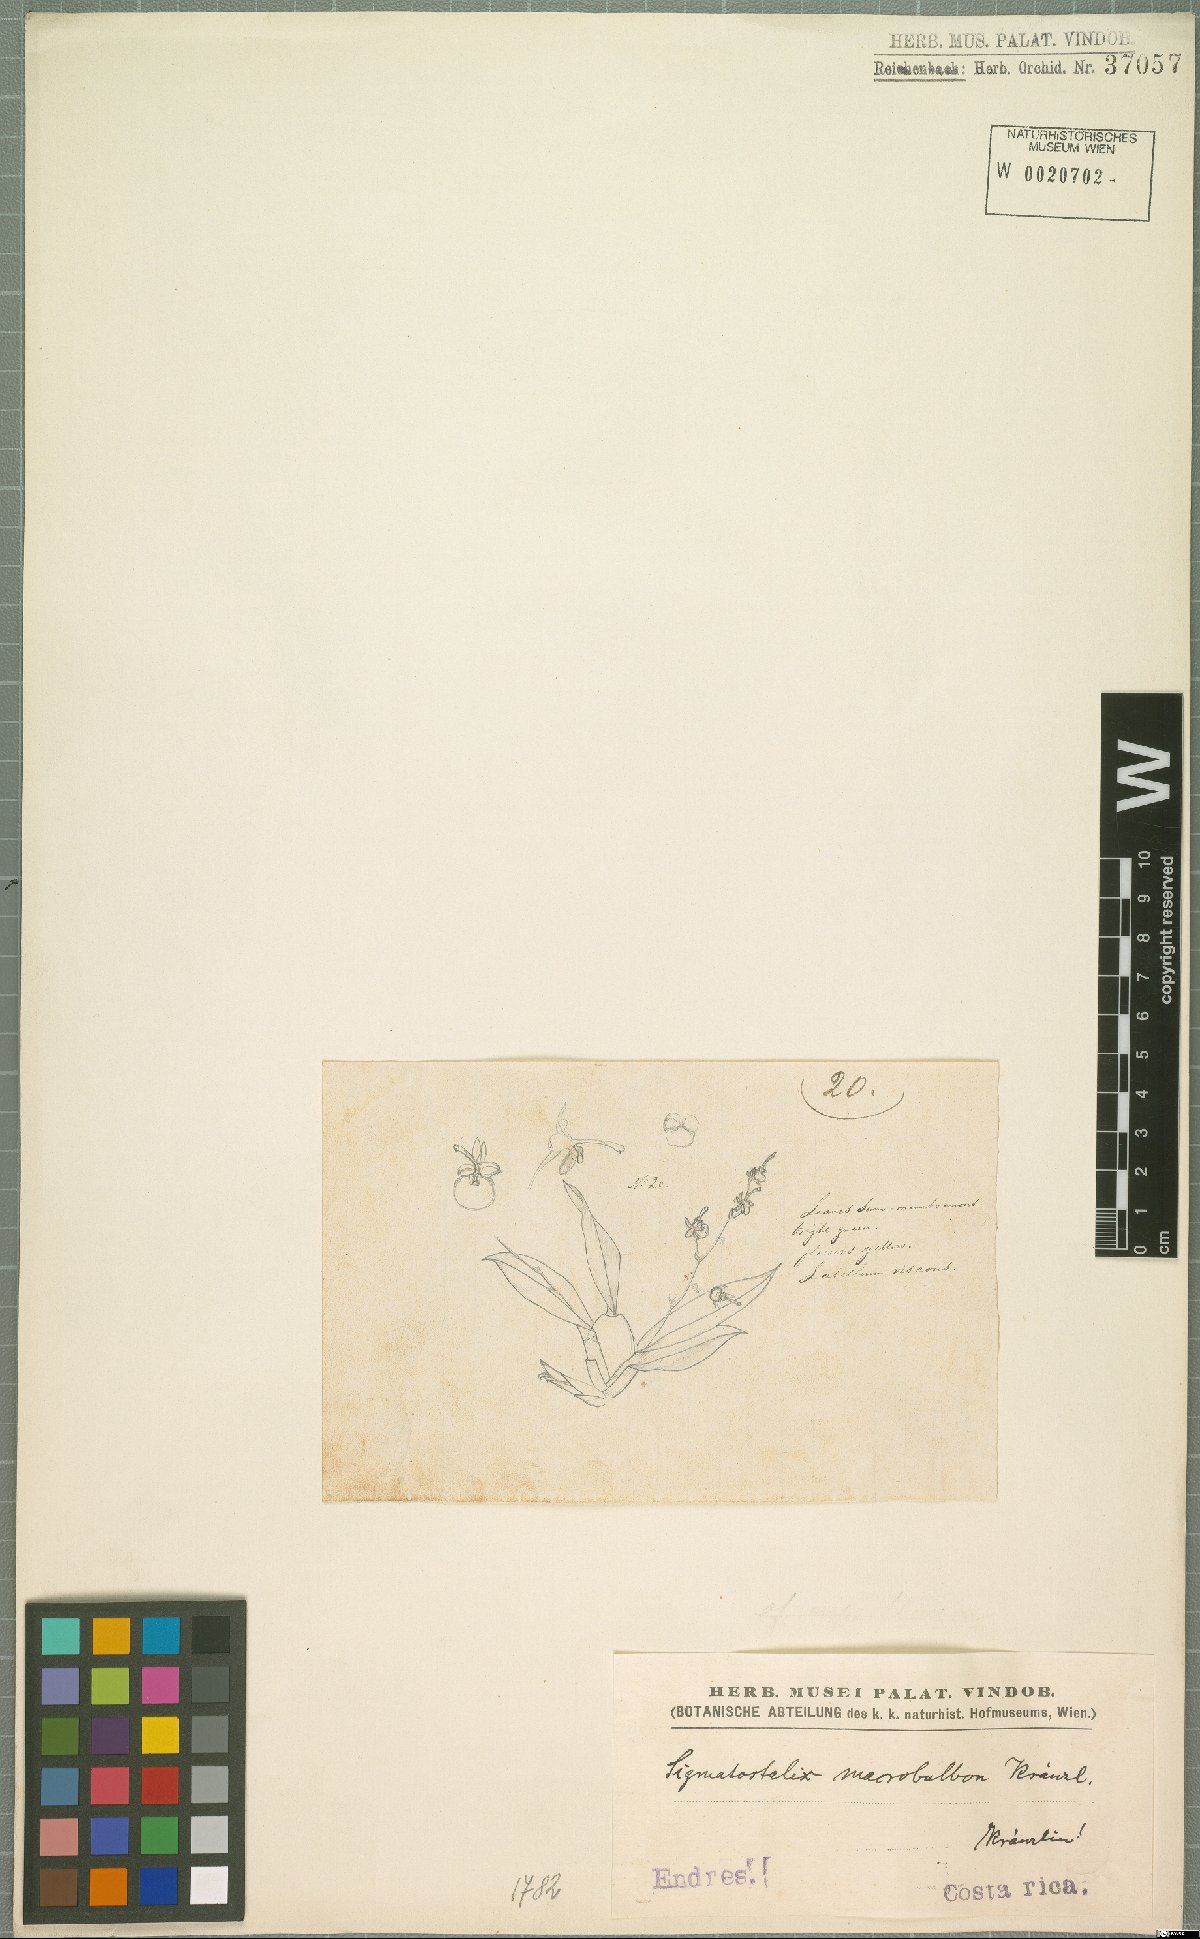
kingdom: Plantae
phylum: Tracheophyta
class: Liliopsida
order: Asparagales
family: Orchidaceae
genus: Oncidium
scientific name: Oncidium macrobulbon
